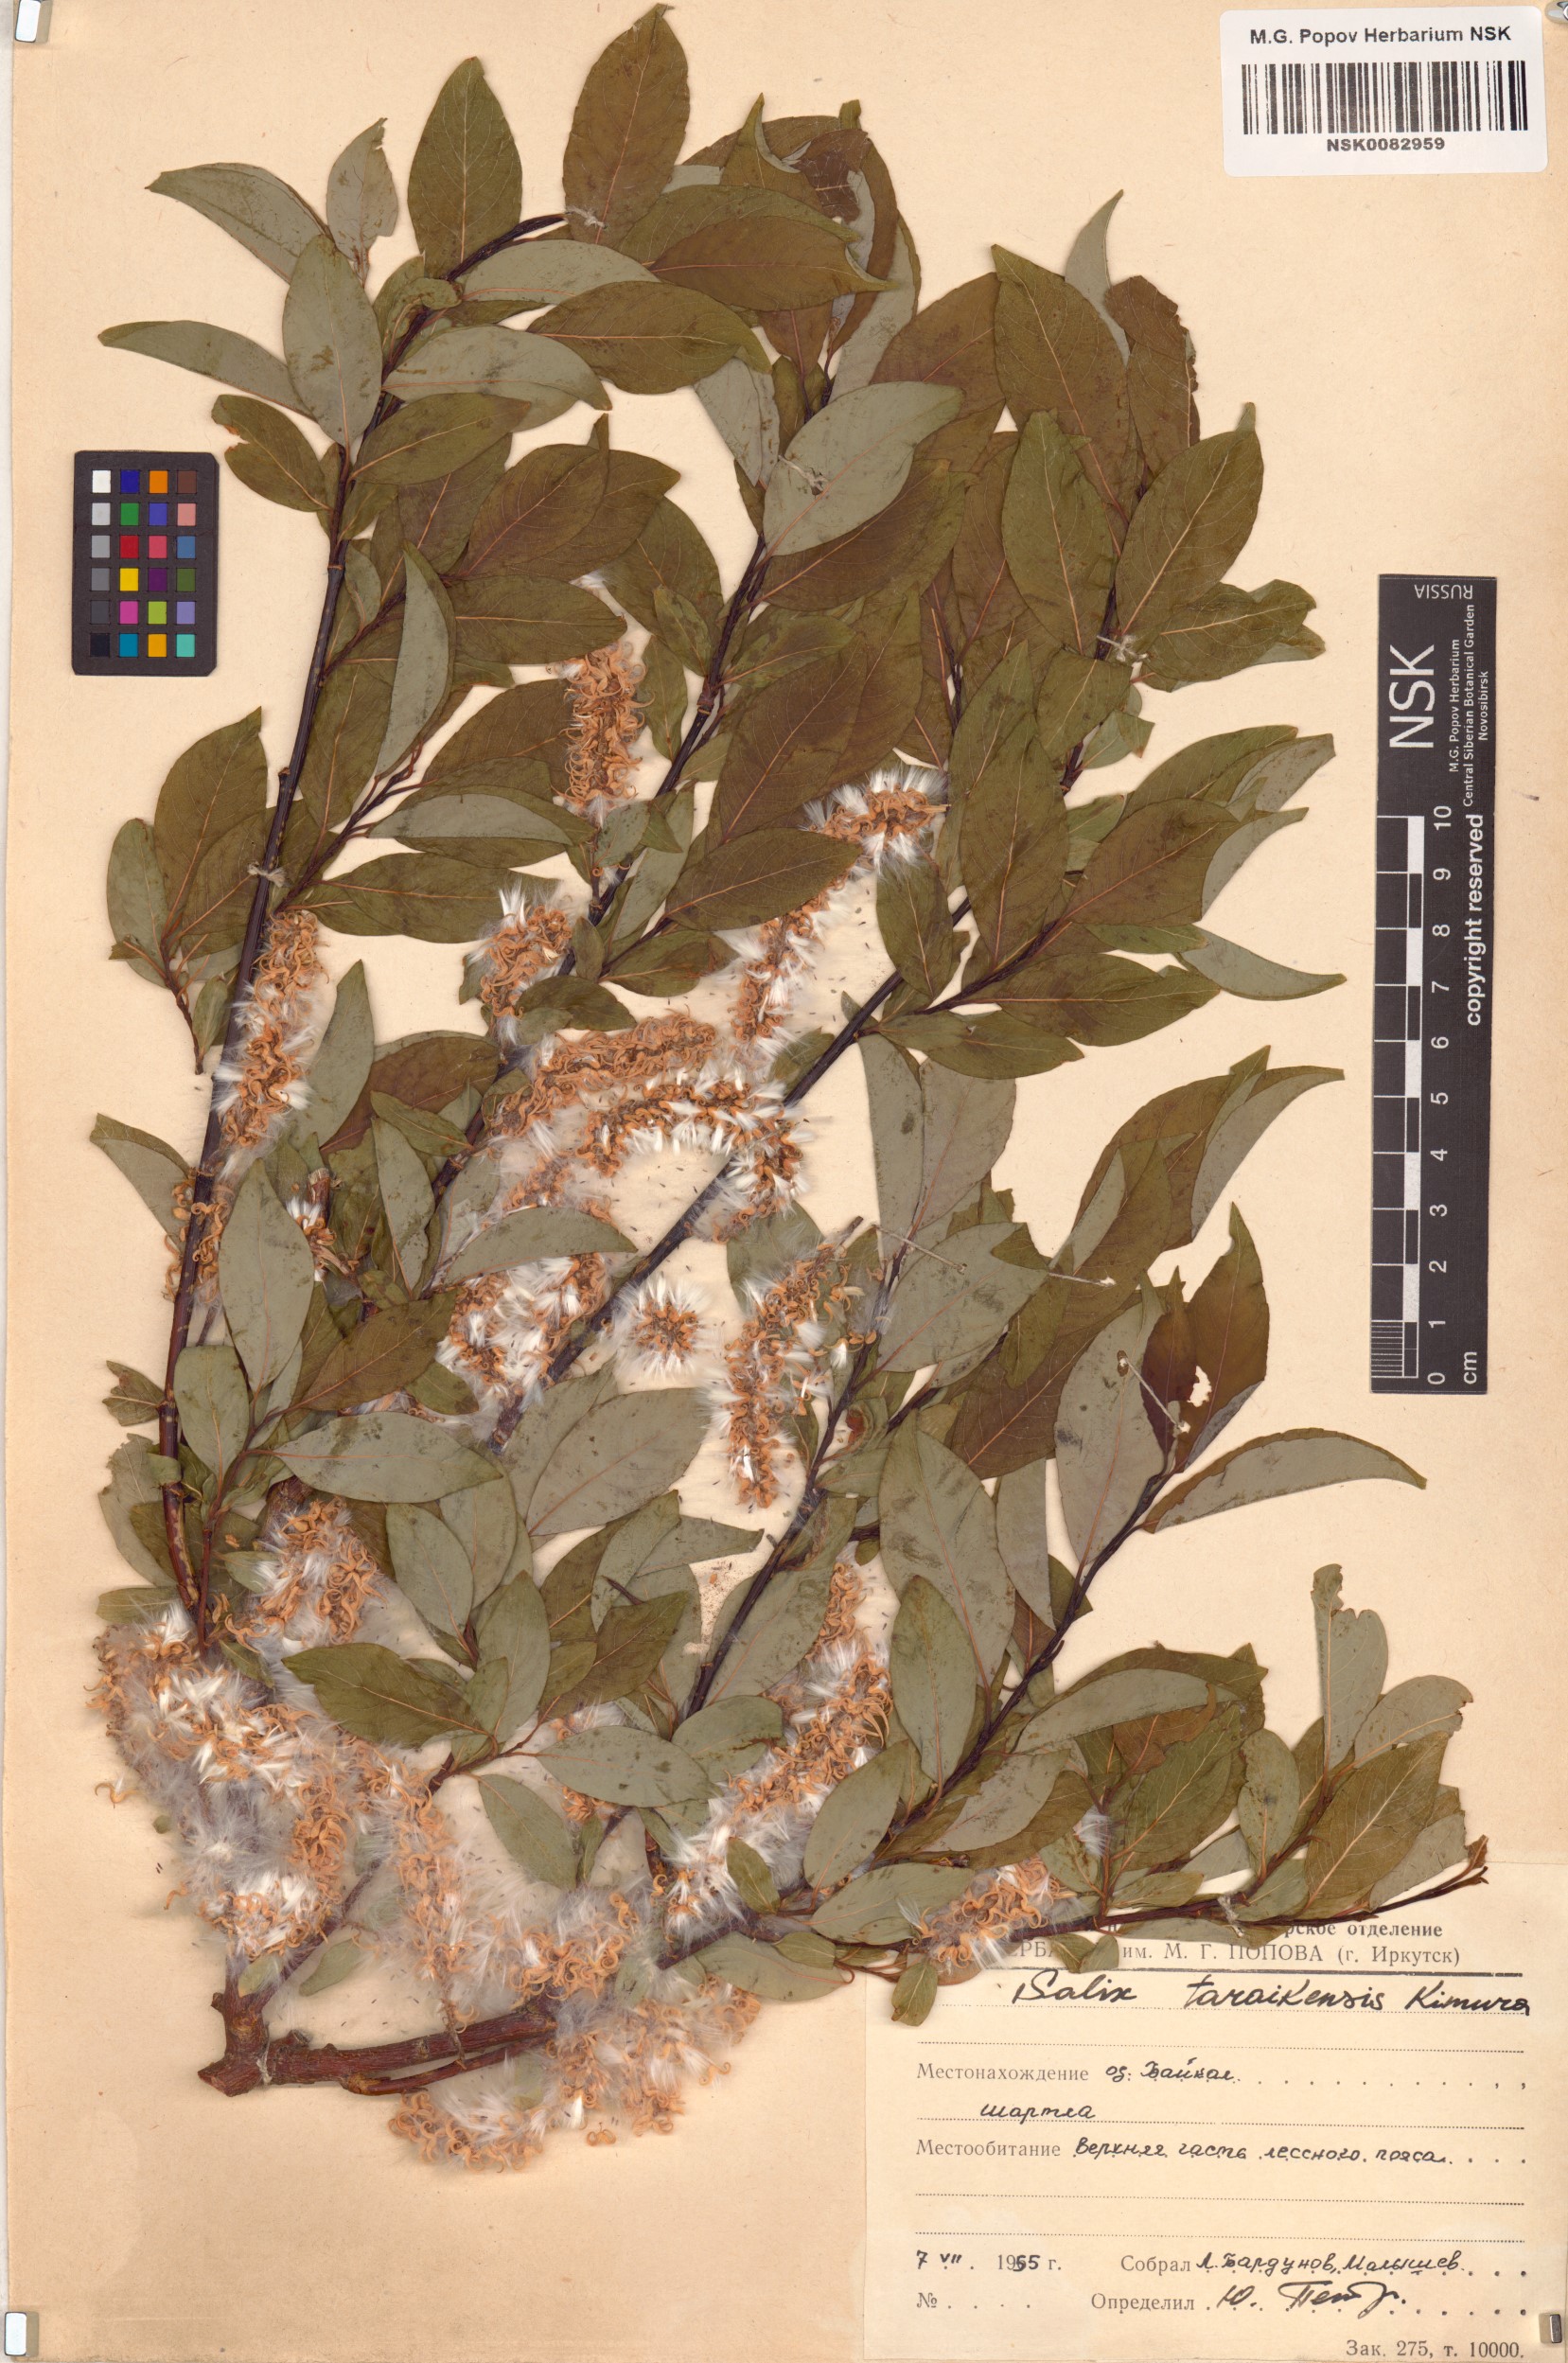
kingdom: Plantae
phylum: Tracheophyta
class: Magnoliopsida
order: Malpighiales
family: Salicaceae
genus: Salix
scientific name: Salix taraikensis
